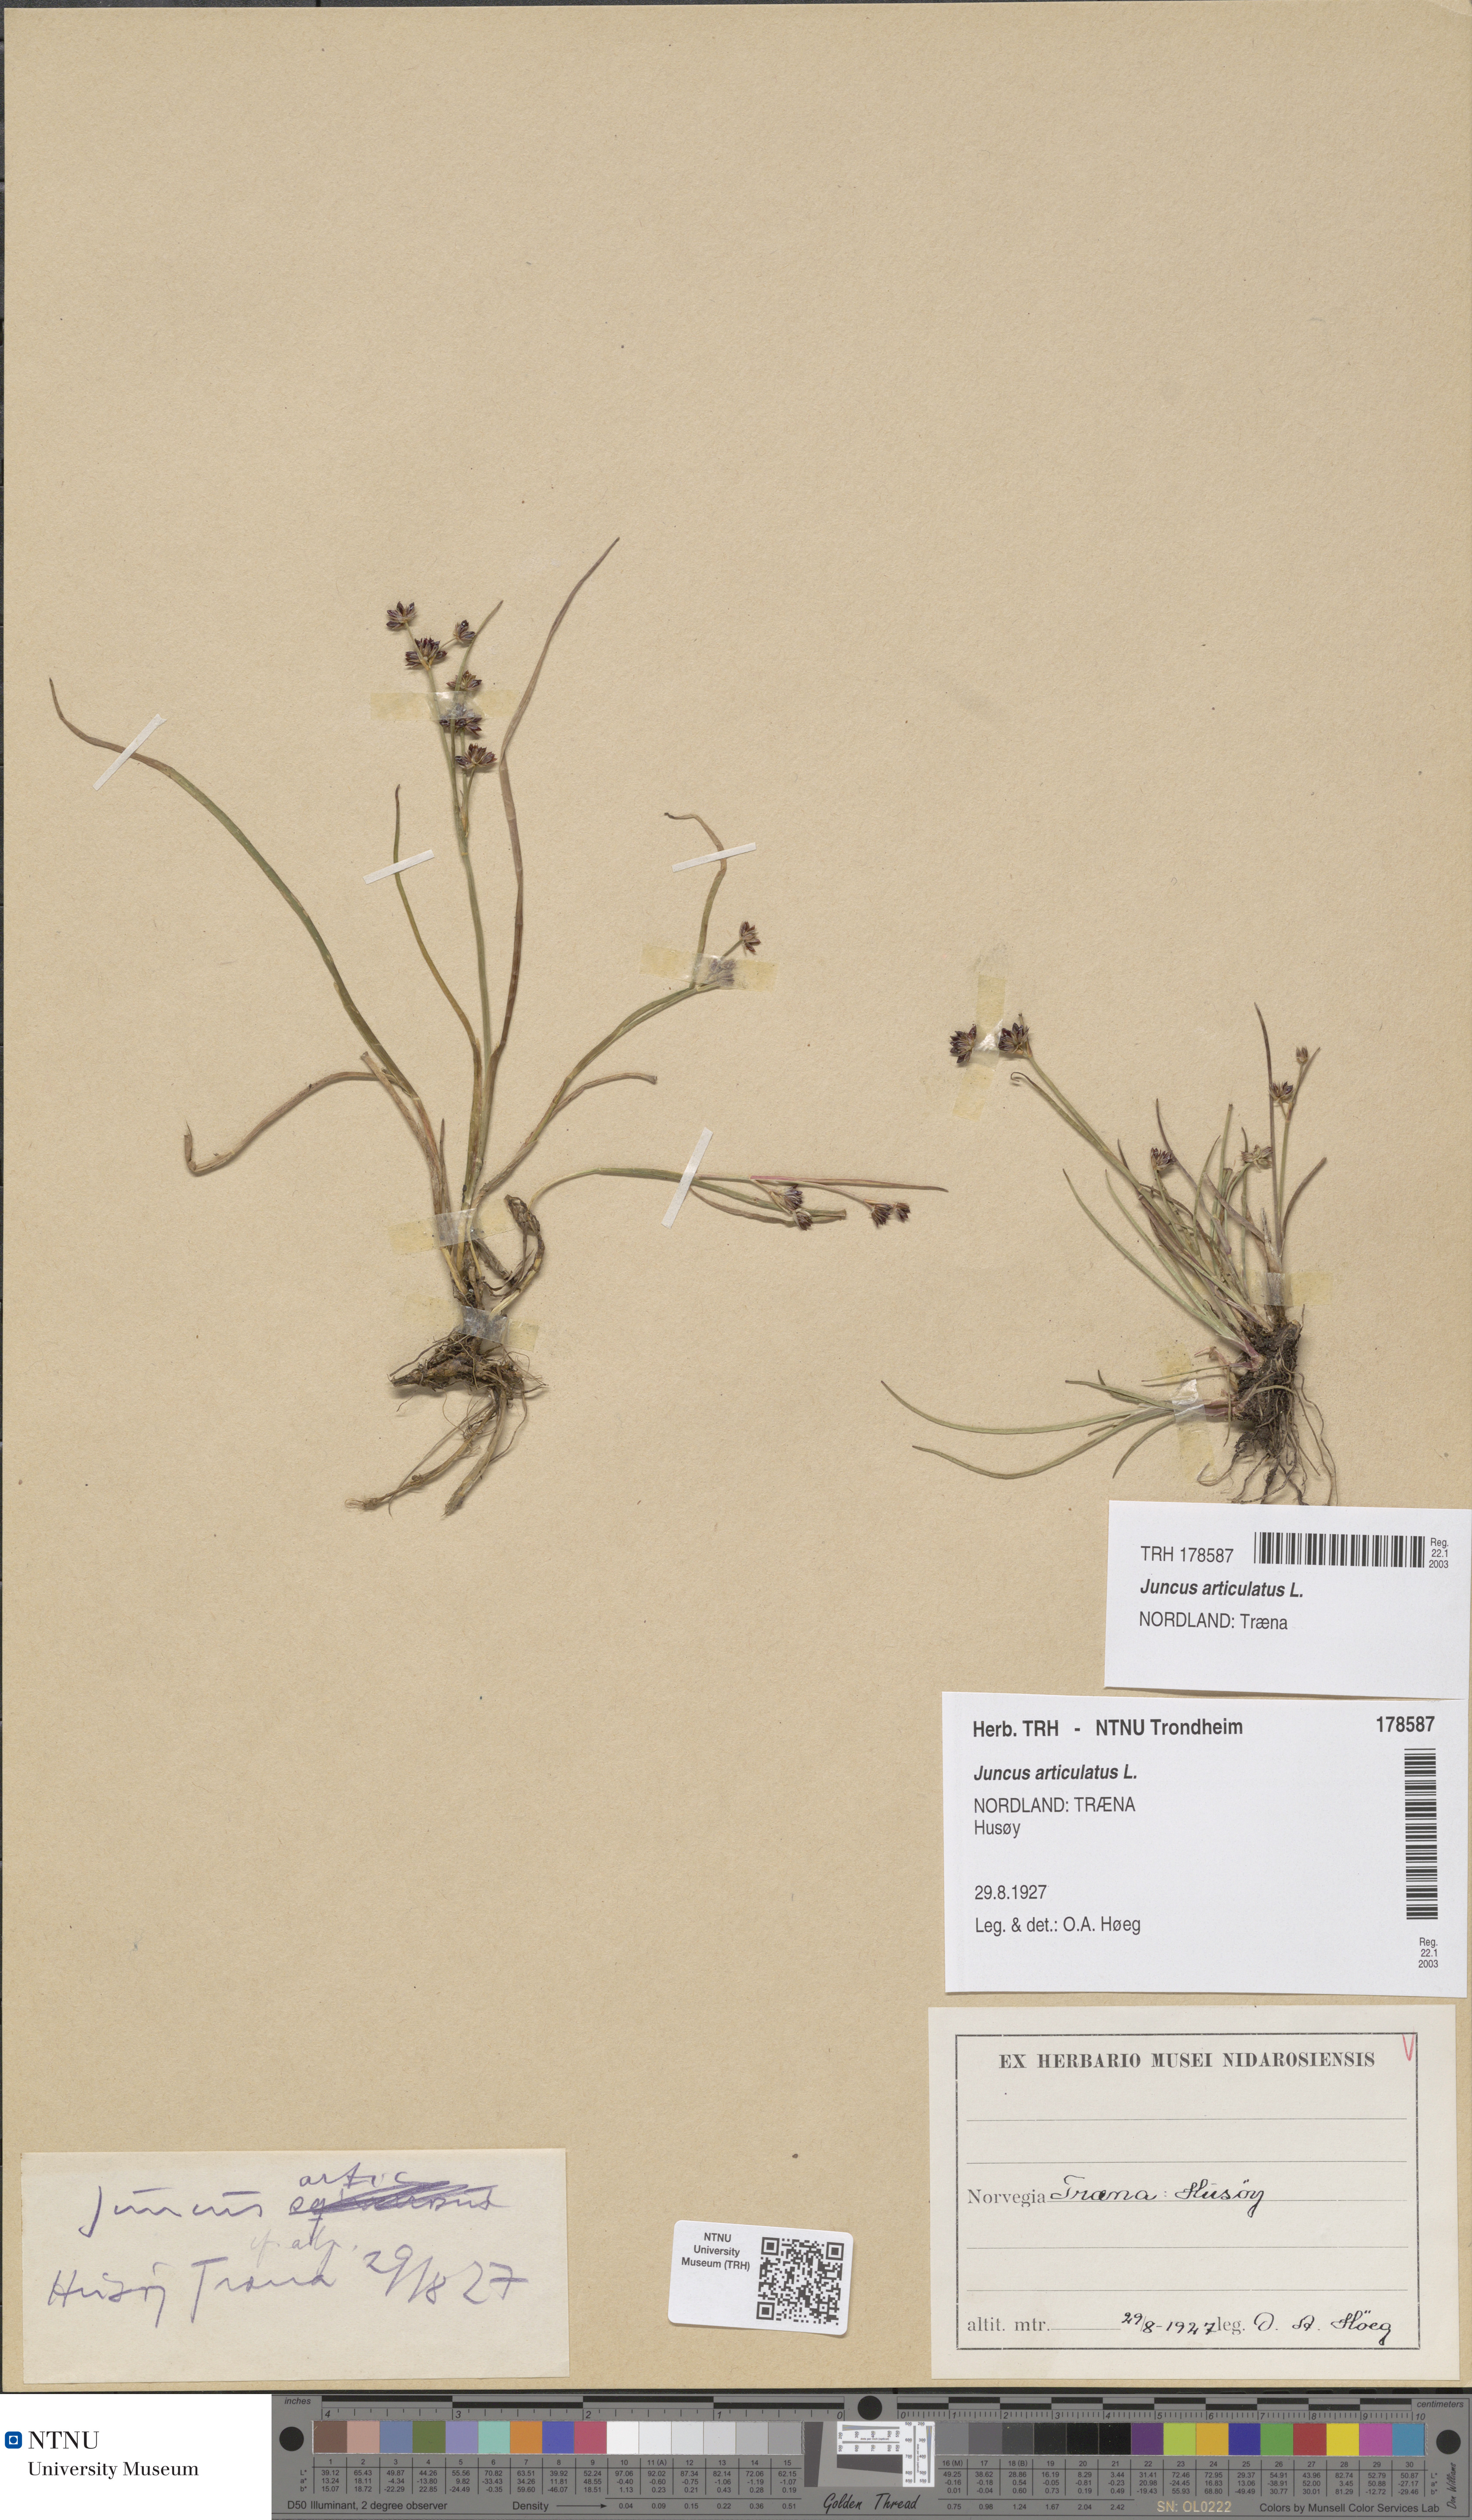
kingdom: Plantae
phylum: Tracheophyta
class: Liliopsida
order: Poales
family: Juncaceae
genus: Juncus
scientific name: Juncus articulatus
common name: Jointed rush
